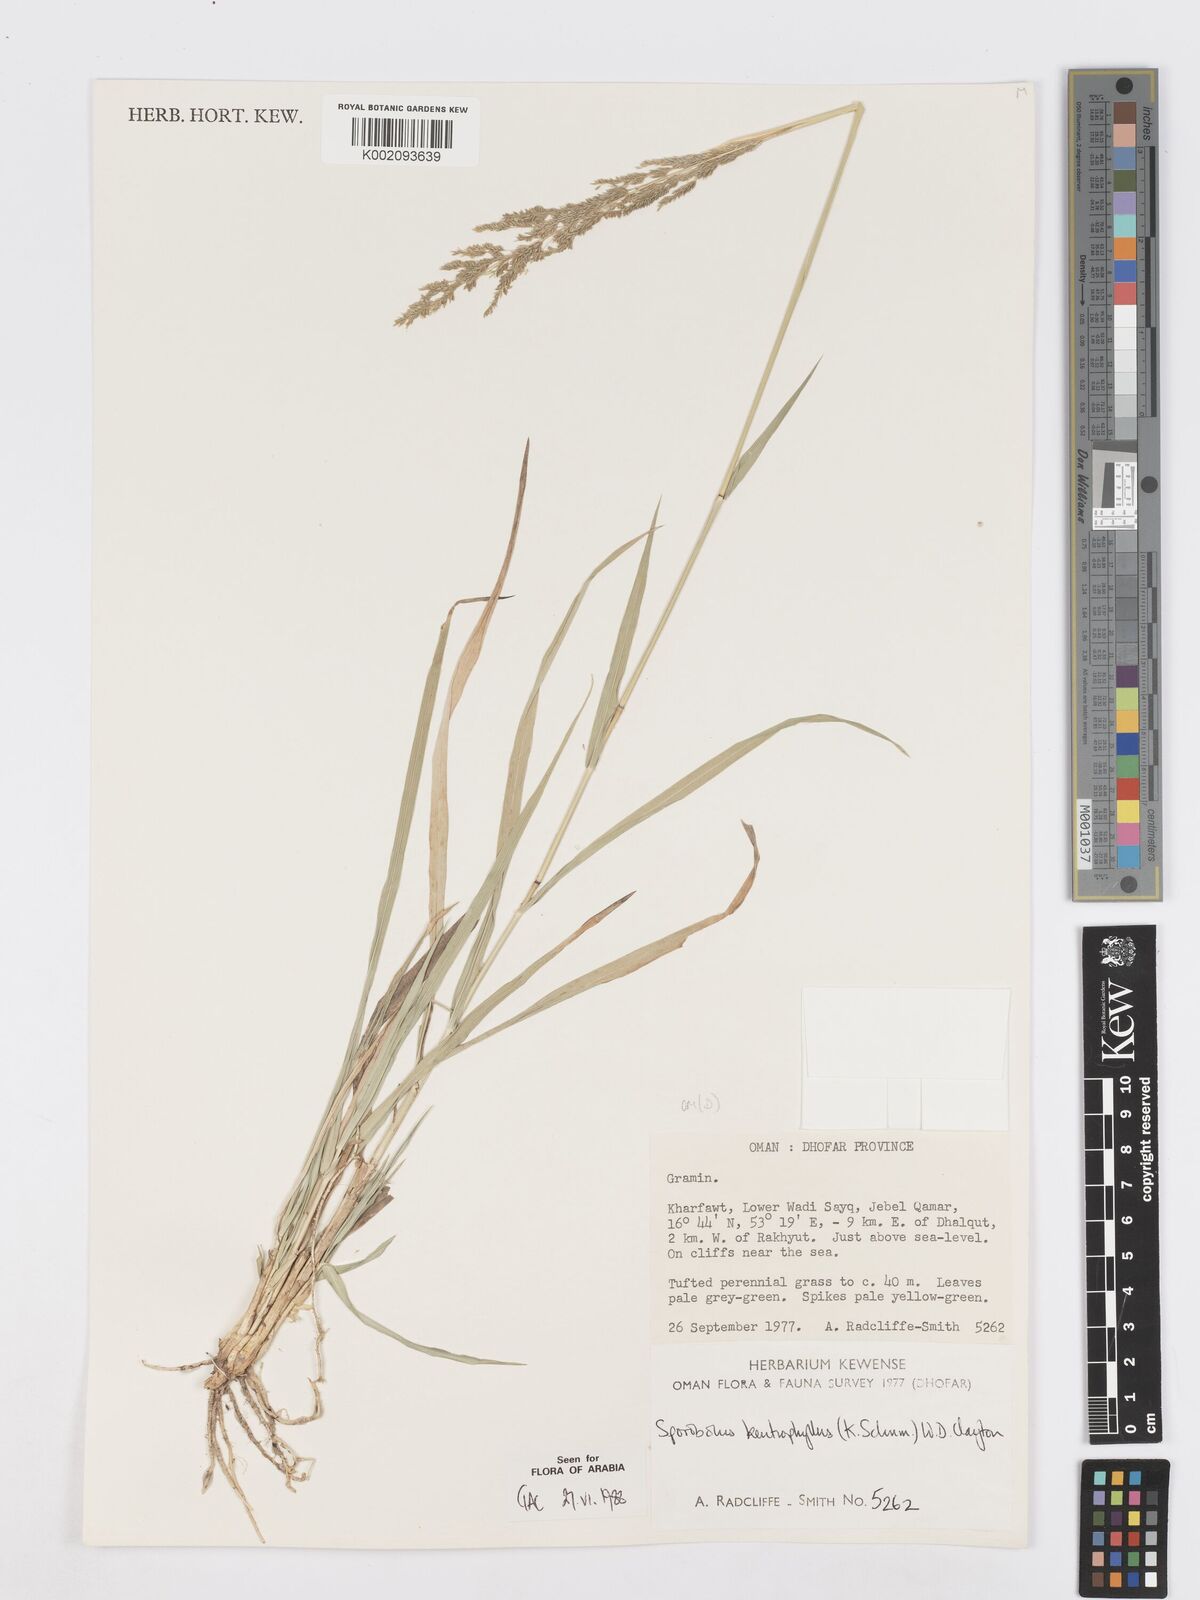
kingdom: Plantae
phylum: Tracheophyta
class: Liliopsida
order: Poales
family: Poaceae
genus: Sporobolus
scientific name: Sporobolus ioclados
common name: Pan dropseed
